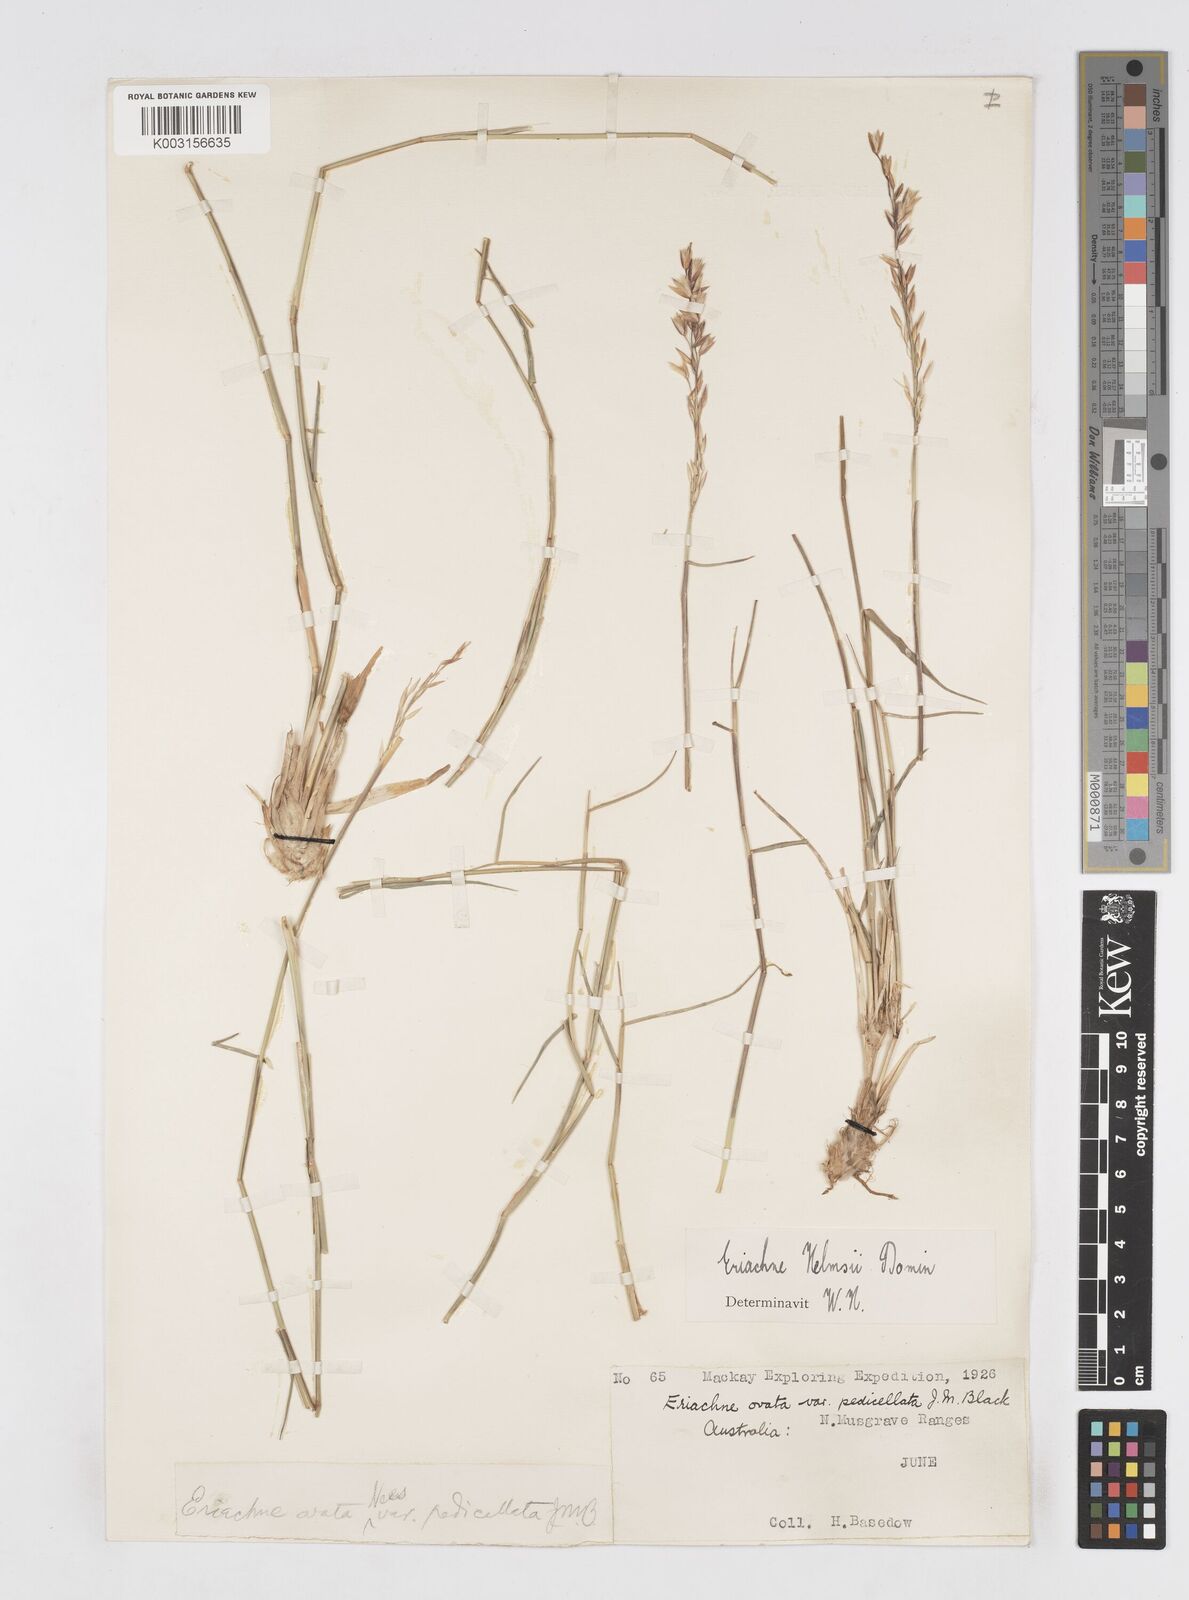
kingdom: Plantae
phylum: Tracheophyta
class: Liliopsida
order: Poales
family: Poaceae
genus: Eriachne
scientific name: Eriachne helmsii
